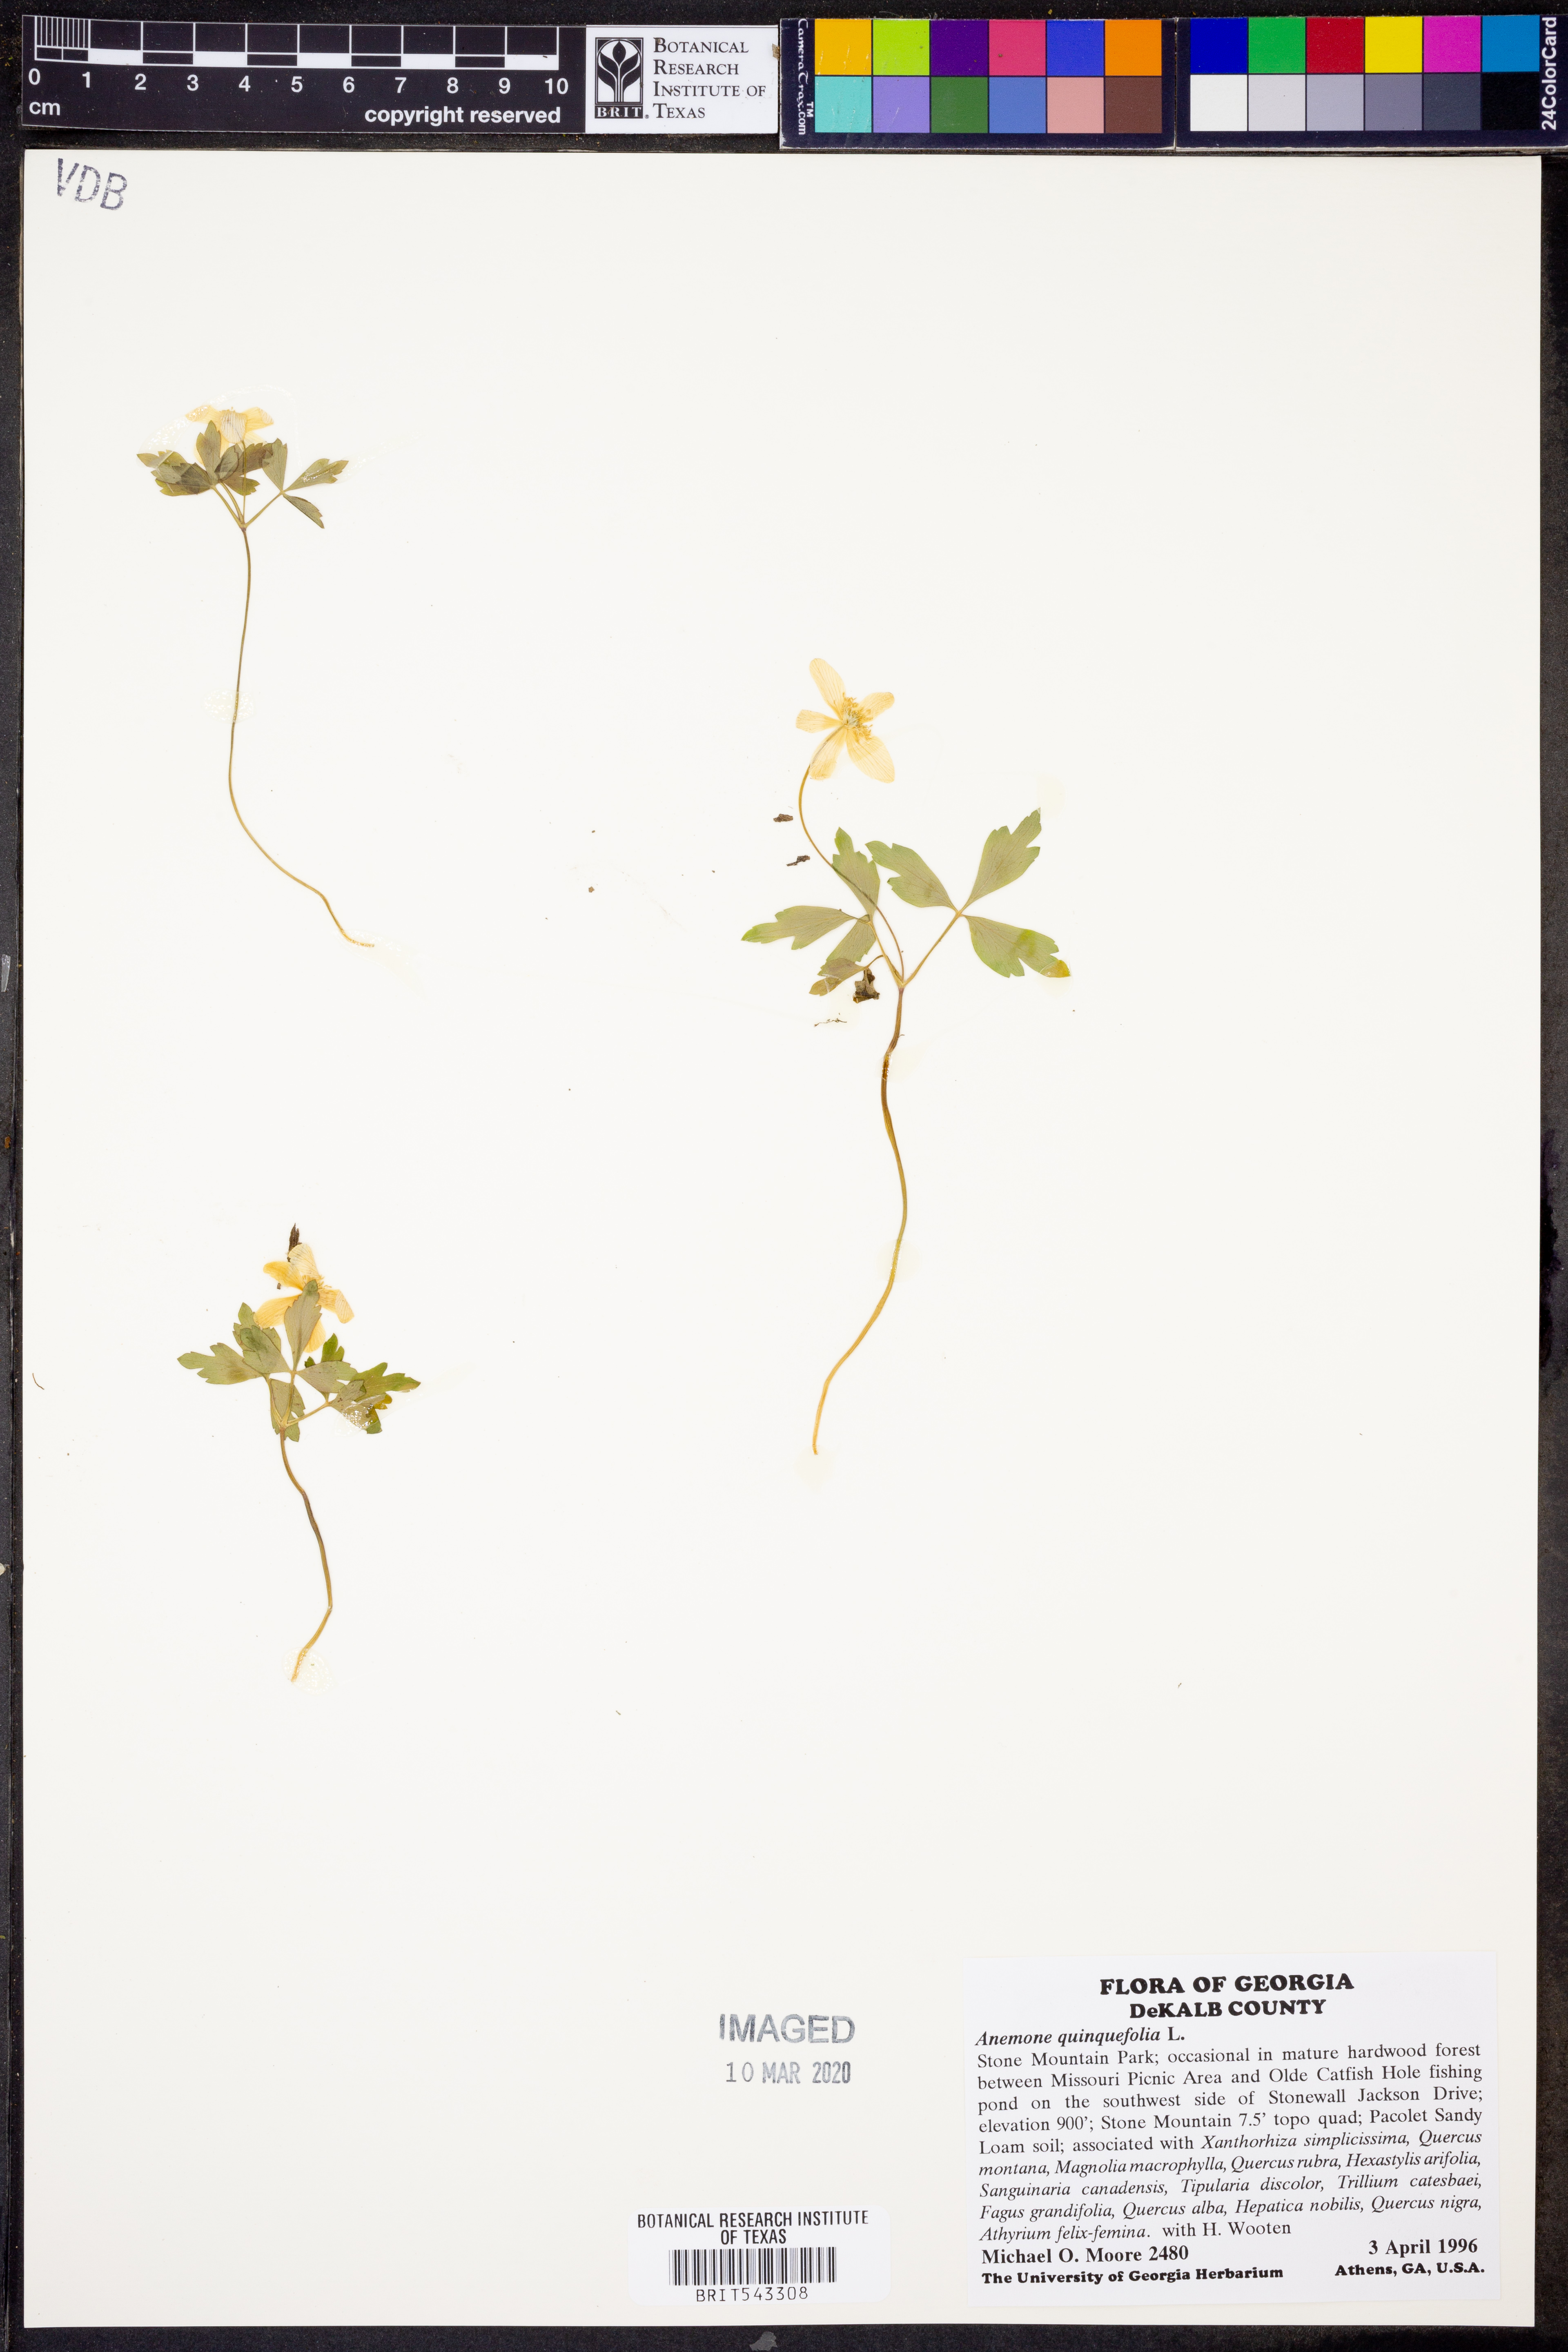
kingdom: Plantae
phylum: Tracheophyta
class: Magnoliopsida
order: Ranunculales
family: Ranunculaceae
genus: Anemone
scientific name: Anemone quinquefolia
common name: Wood anemone
